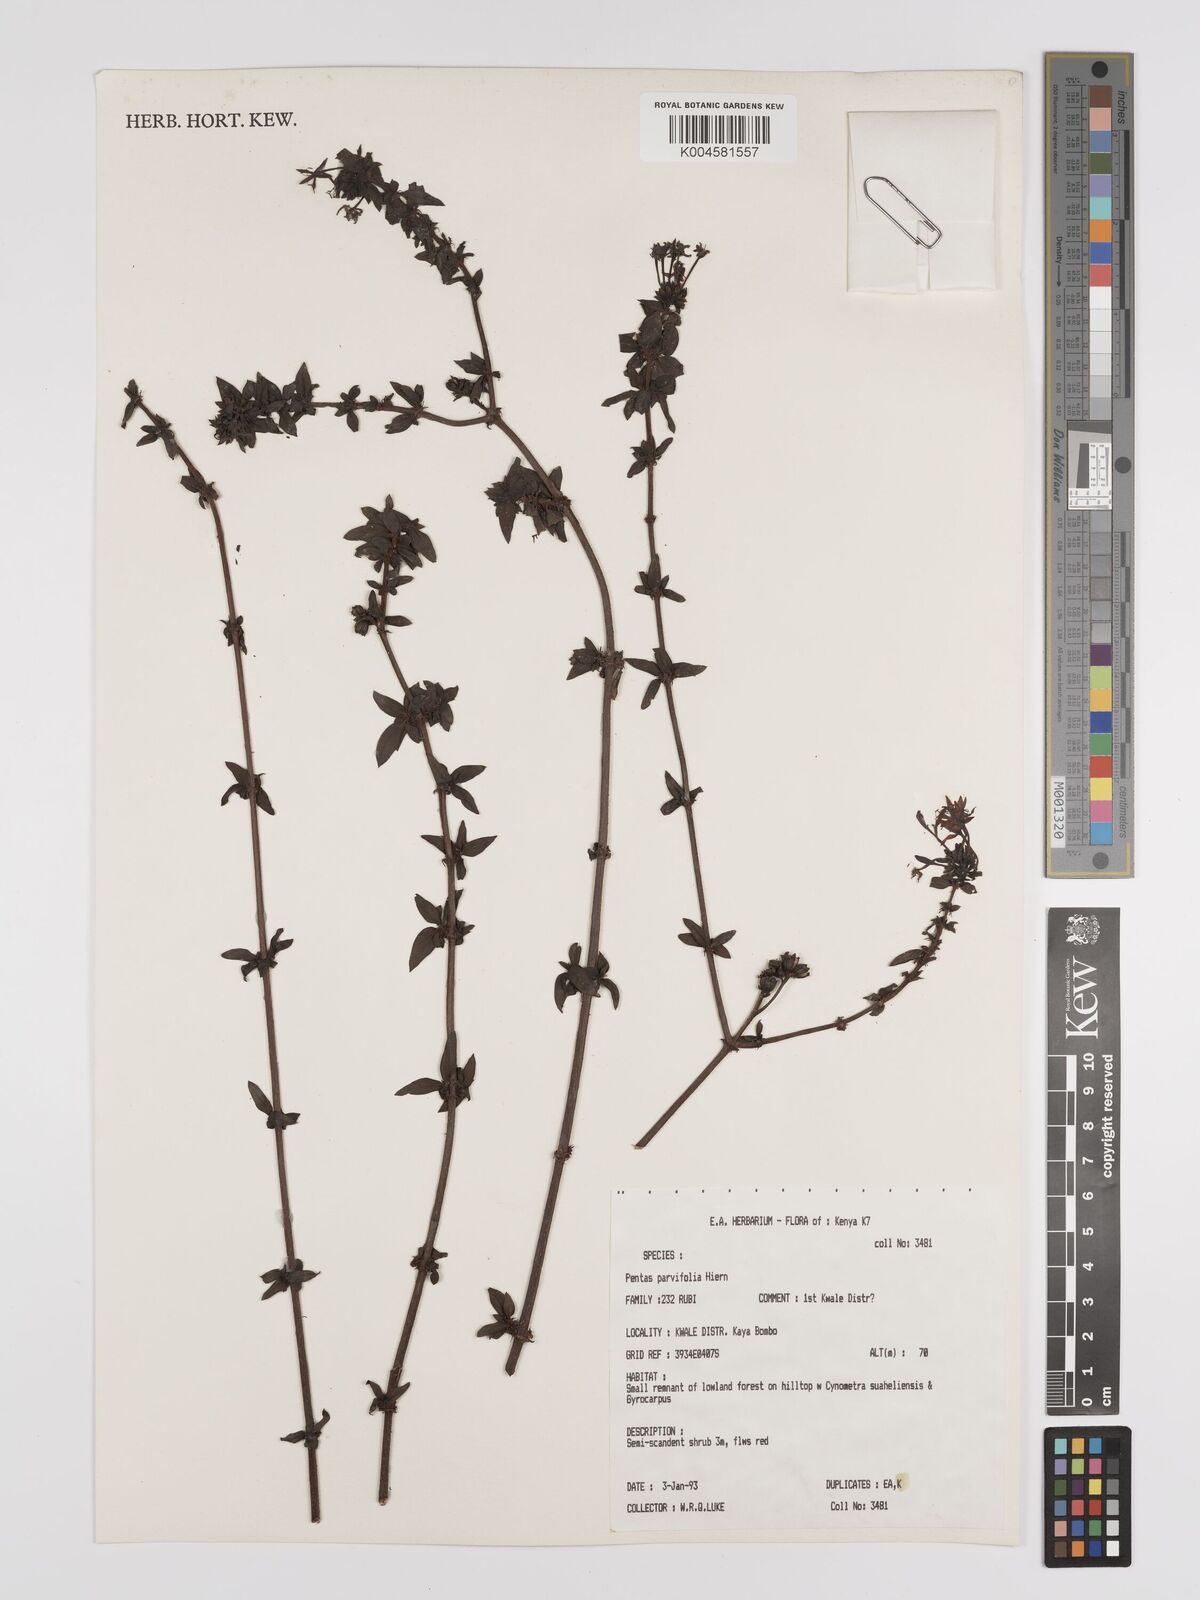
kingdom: Plantae
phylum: Tracheophyta
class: Magnoliopsida
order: Gentianales
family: Rubiaceae
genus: Rhodopentas
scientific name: Rhodopentas parvifolia
